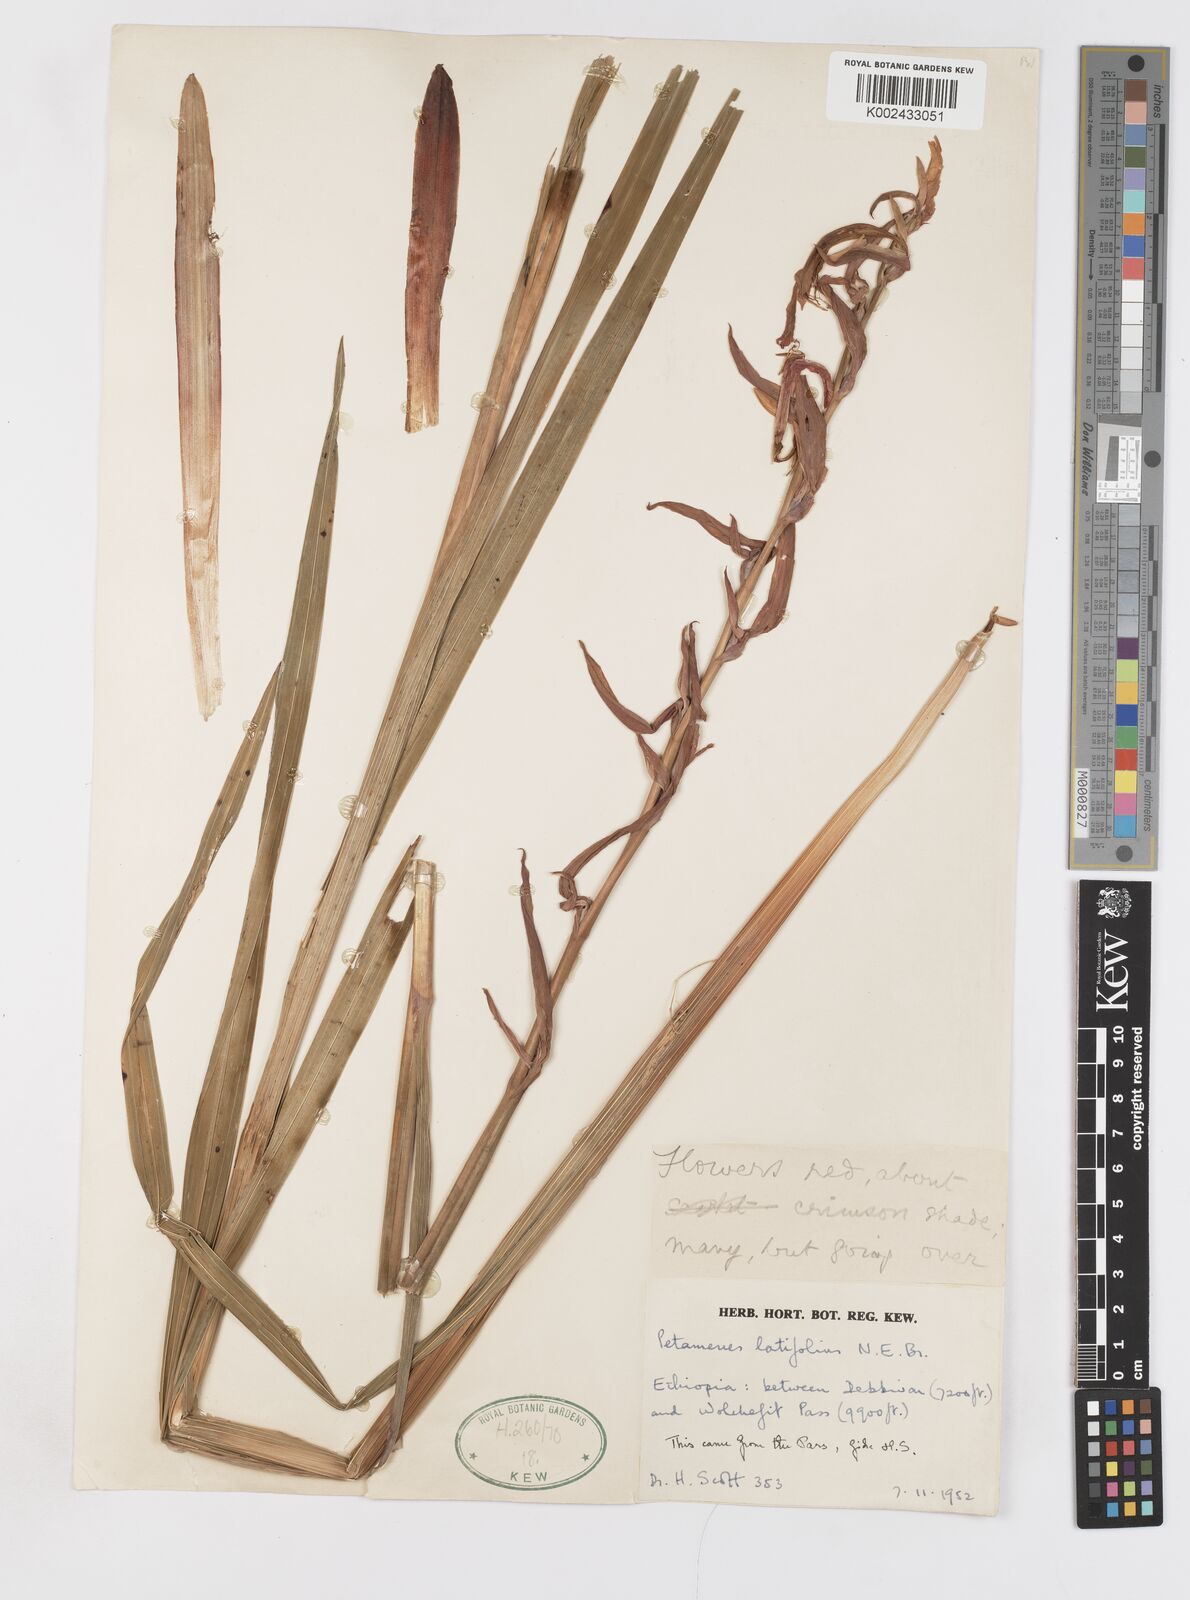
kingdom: Plantae
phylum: Tracheophyta
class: Liliopsida
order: Asparagales
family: Iridaceae
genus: Gladiolus
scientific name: Gladiolus abyssinicus
